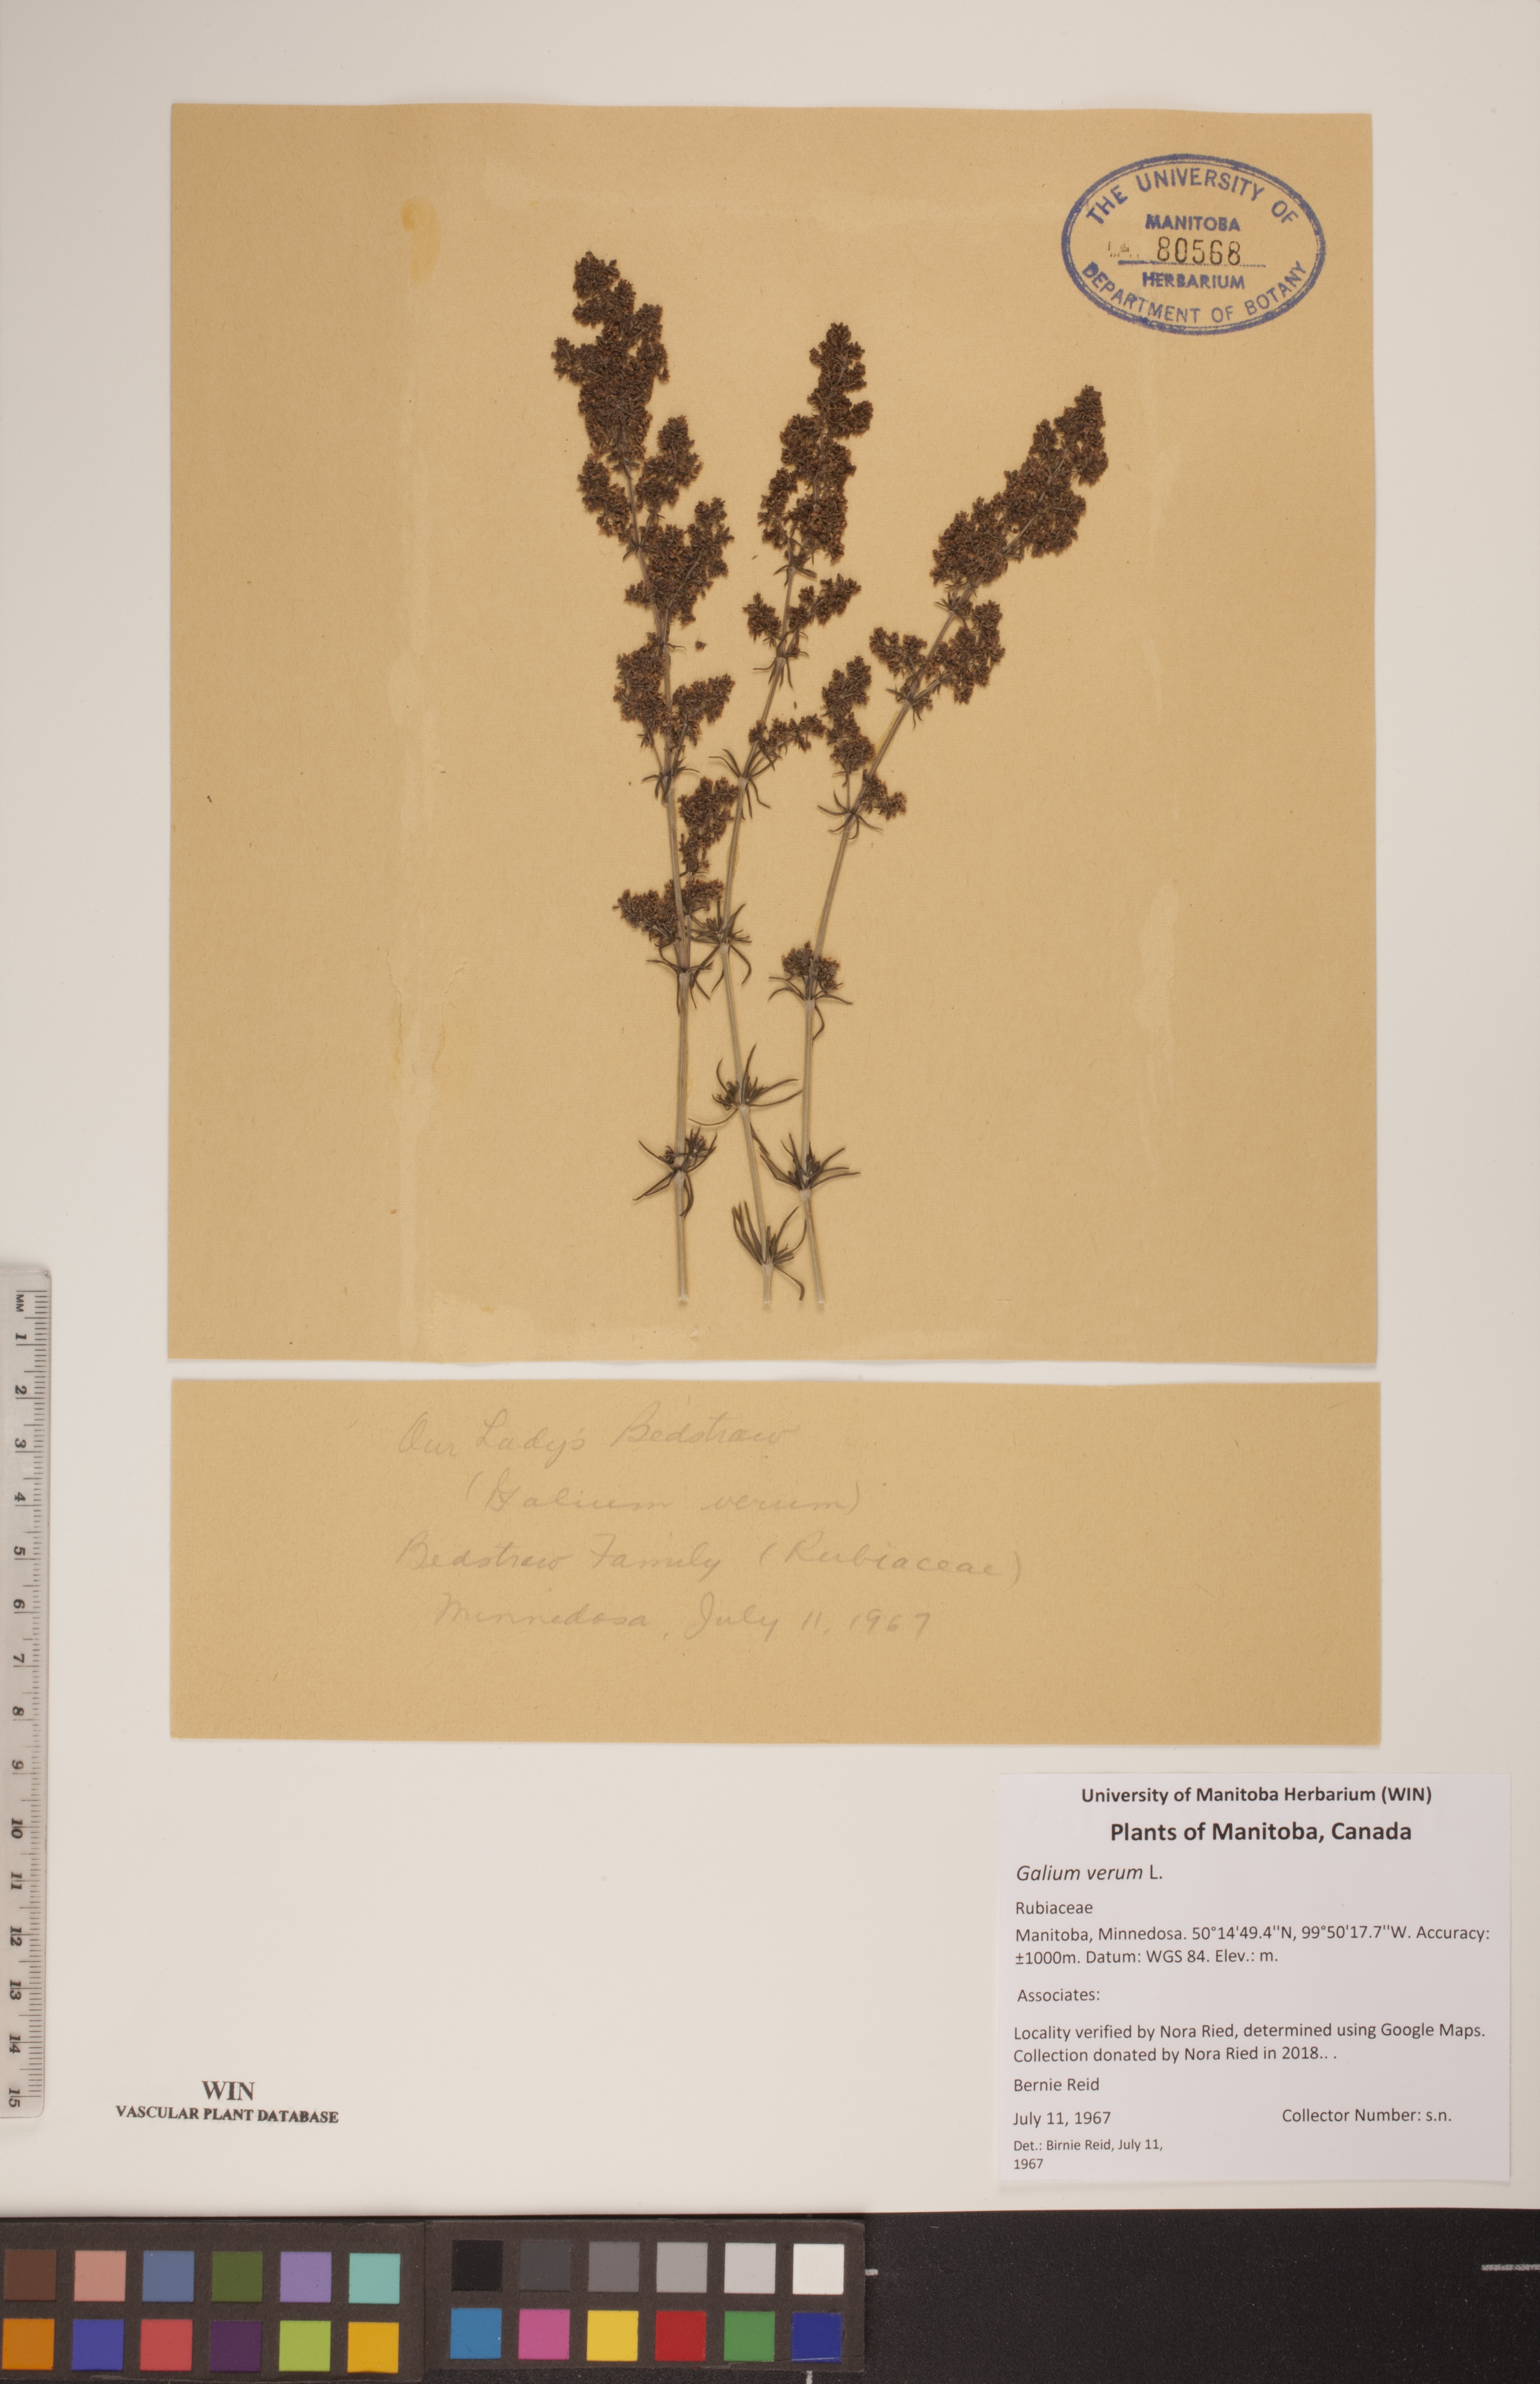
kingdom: Plantae
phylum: Tracheophyta
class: Magnoliopsida
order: Gentianales
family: Rubiaceae
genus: Galium
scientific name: Galium verum
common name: Lady's bedstraw
